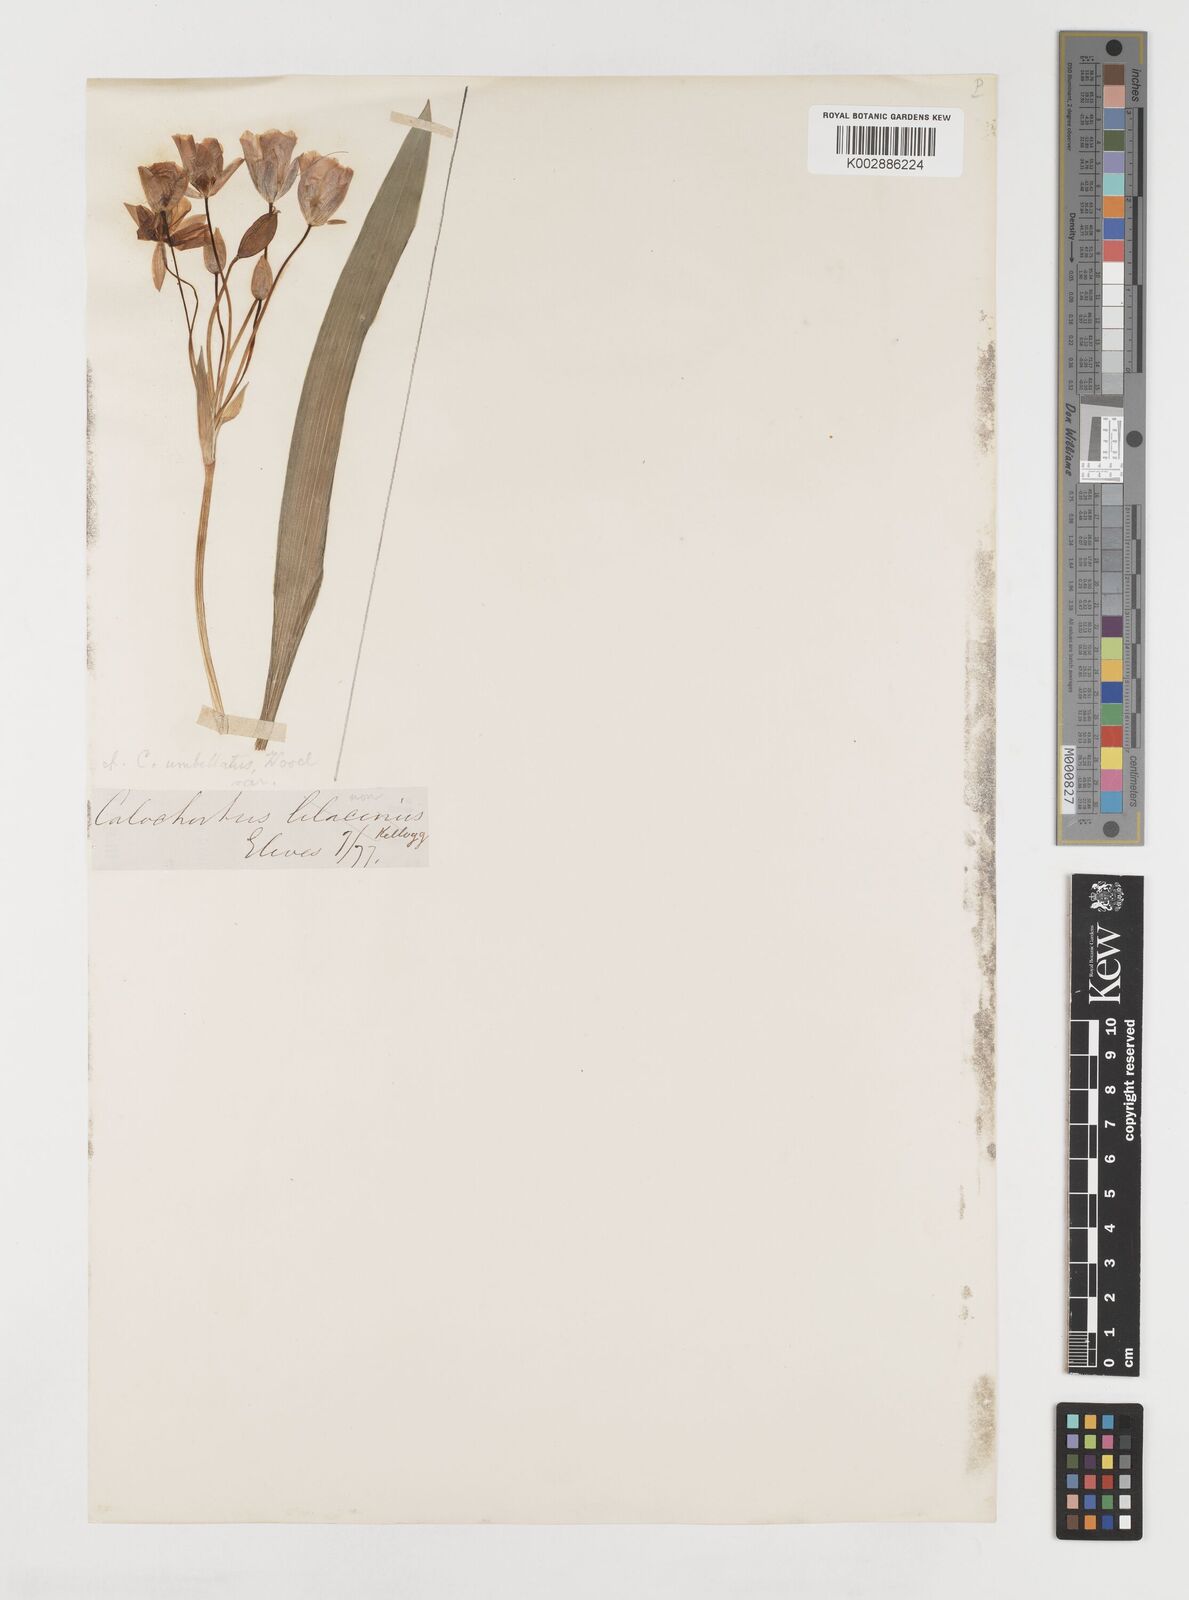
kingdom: Plantae
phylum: Tracheophyta
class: Liliopsida
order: Liliales
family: Liliaceae
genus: Calochortus
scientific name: Calochortus umbellatus
